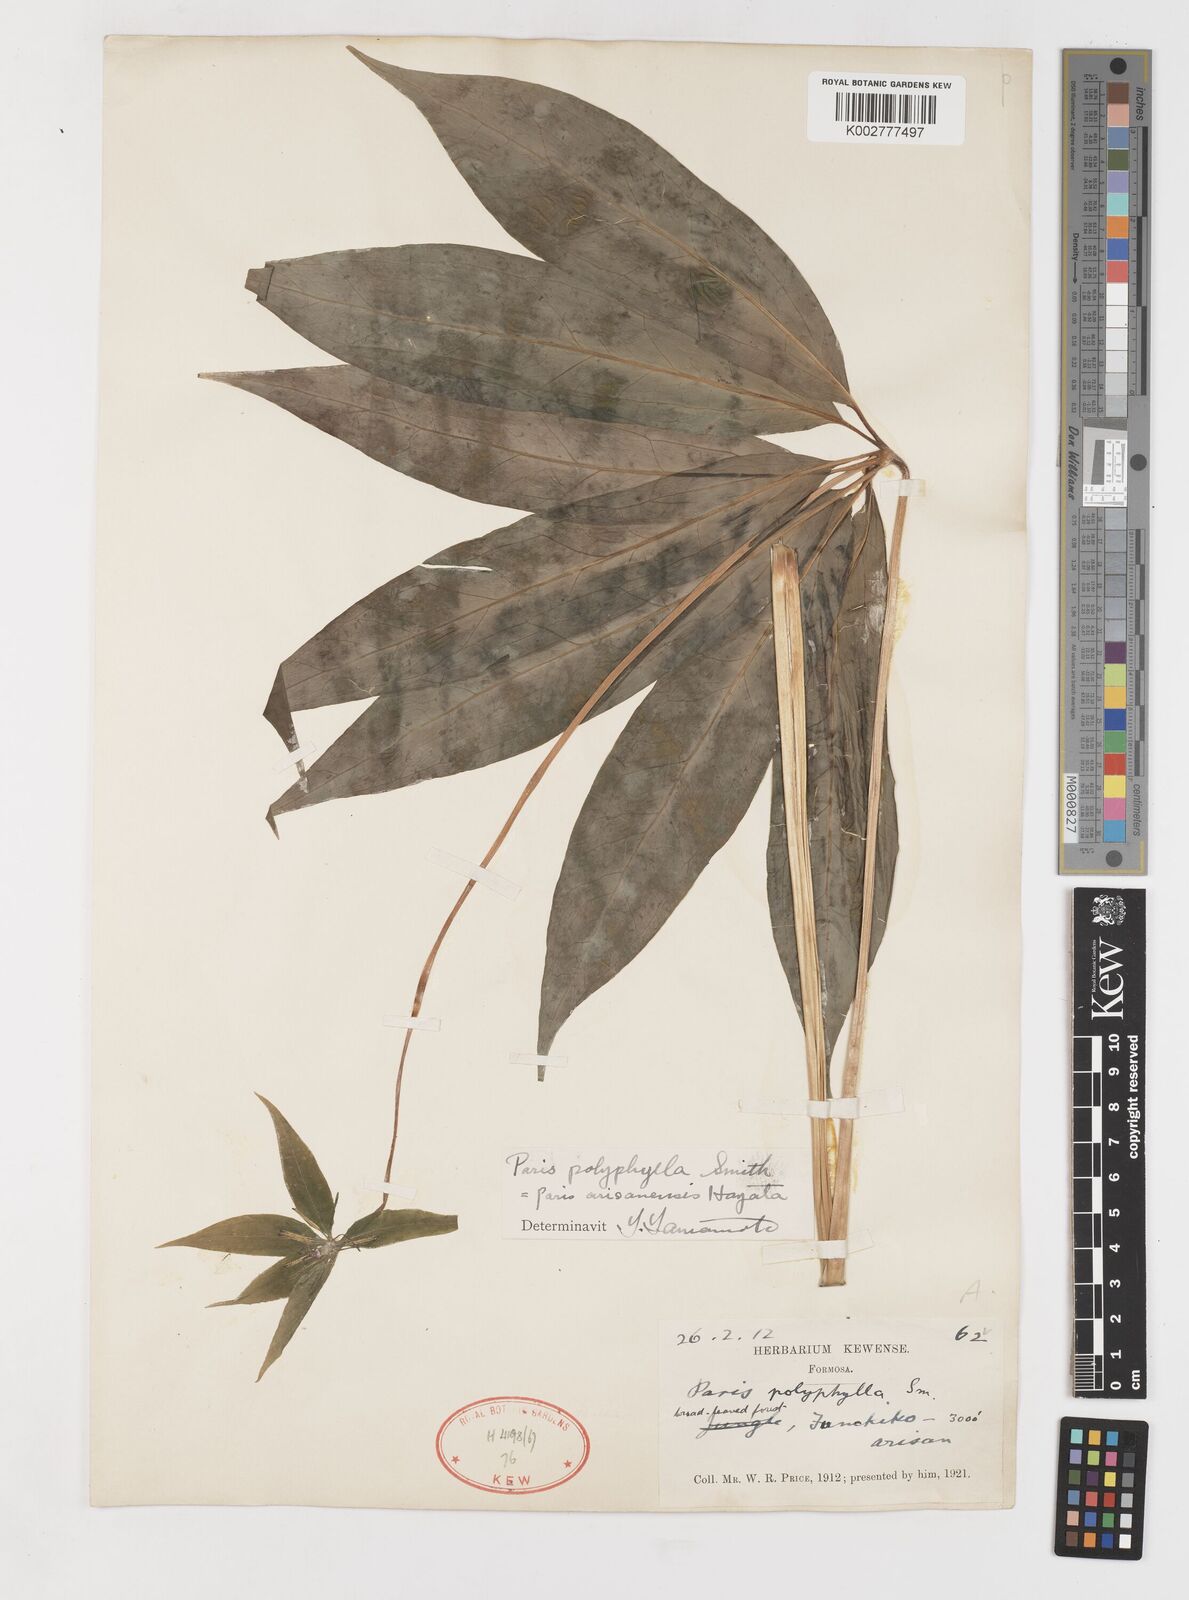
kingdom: Plantae
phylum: Tracheophyta
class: Liliopsida
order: Liliales
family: Melanthiaceae
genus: Paris
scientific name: Paris delavayi
